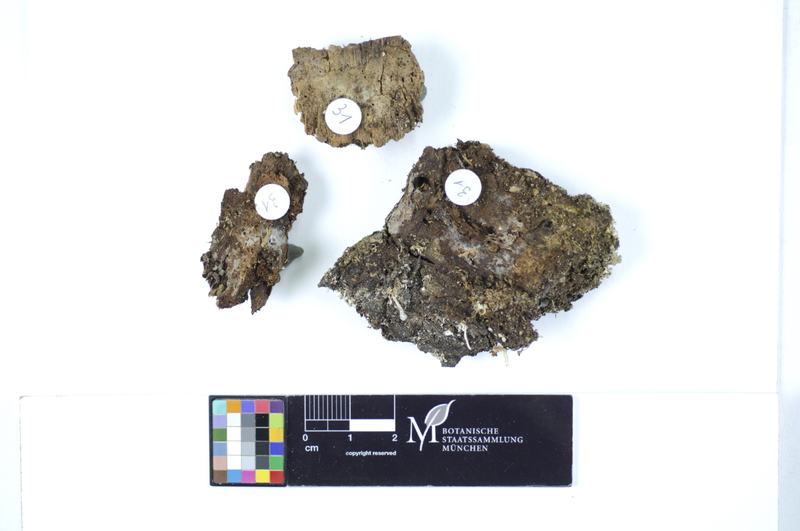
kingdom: Plantae
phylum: Tracheophyta
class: Pinopsida
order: Pinales
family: Pinaceae
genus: Pinus
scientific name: Pinus
